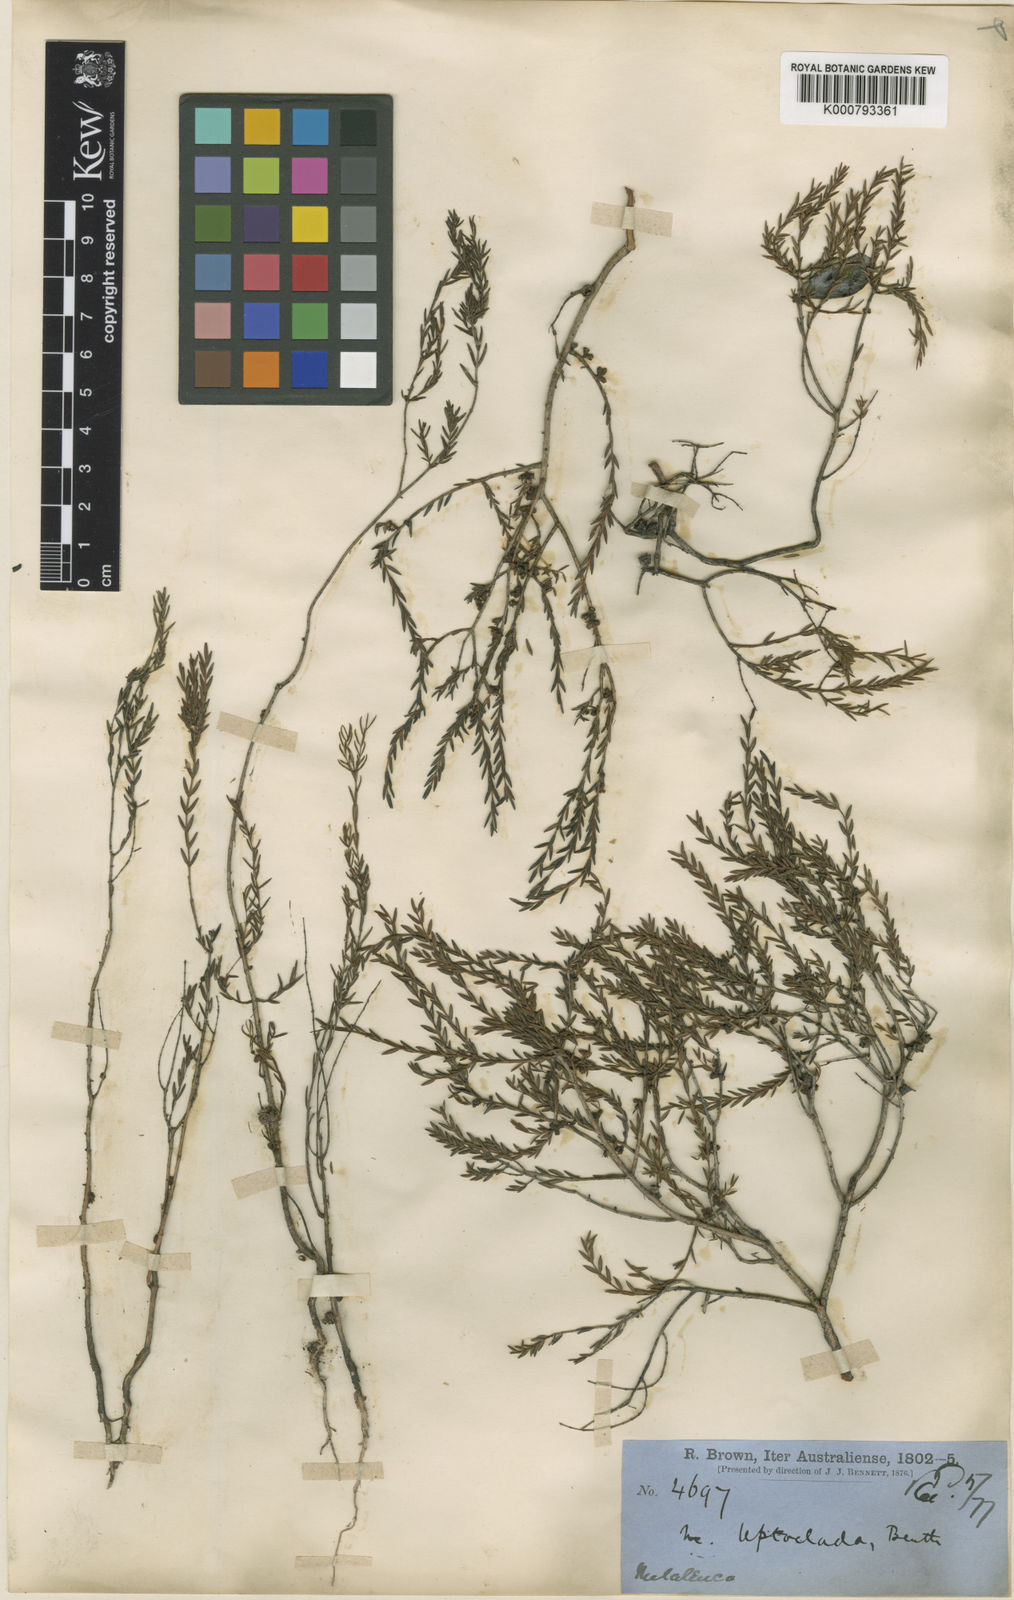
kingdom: Plantae
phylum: Tracheophyta
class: Magnoliopsida
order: Myrtales
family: Myrtaceae
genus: Melaleuca
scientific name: Melaleuca pauciflora
